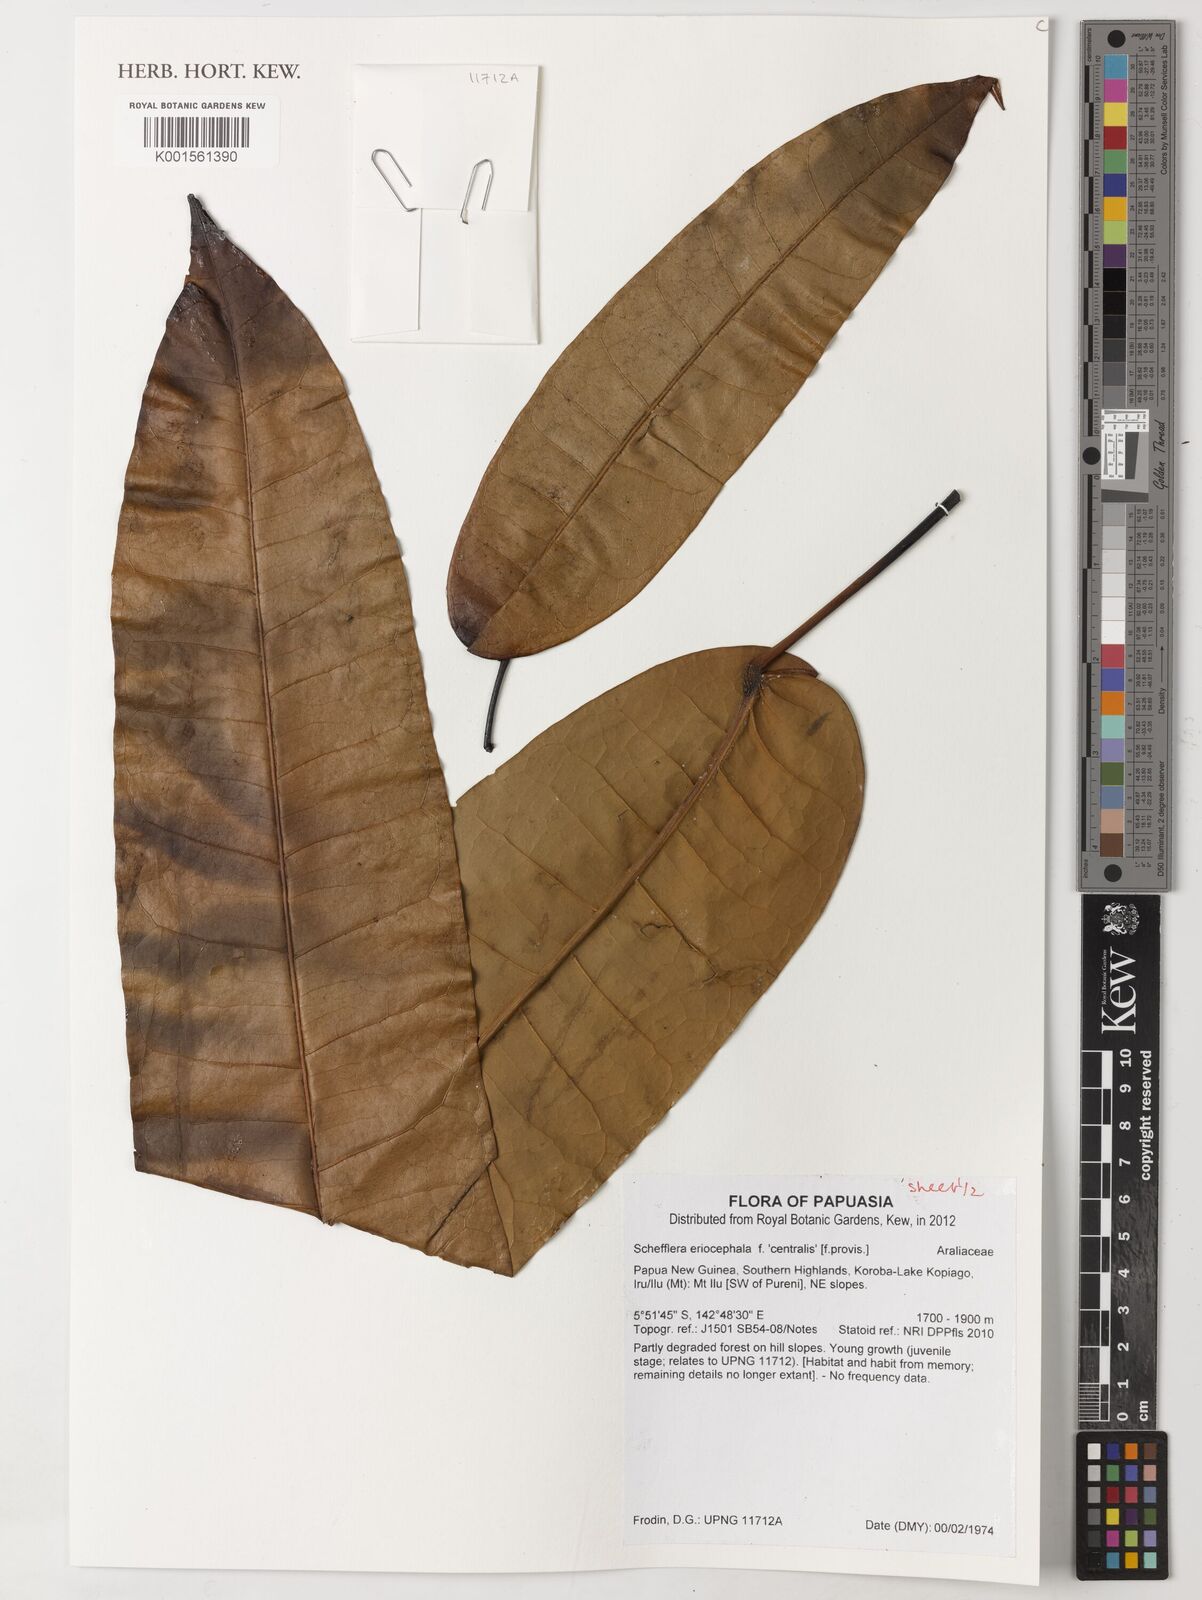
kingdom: Plantae
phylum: Tracheophyta
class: Magnoliopsida
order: Apiales
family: Araliaceae
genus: Schefflera
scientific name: Schefflera
